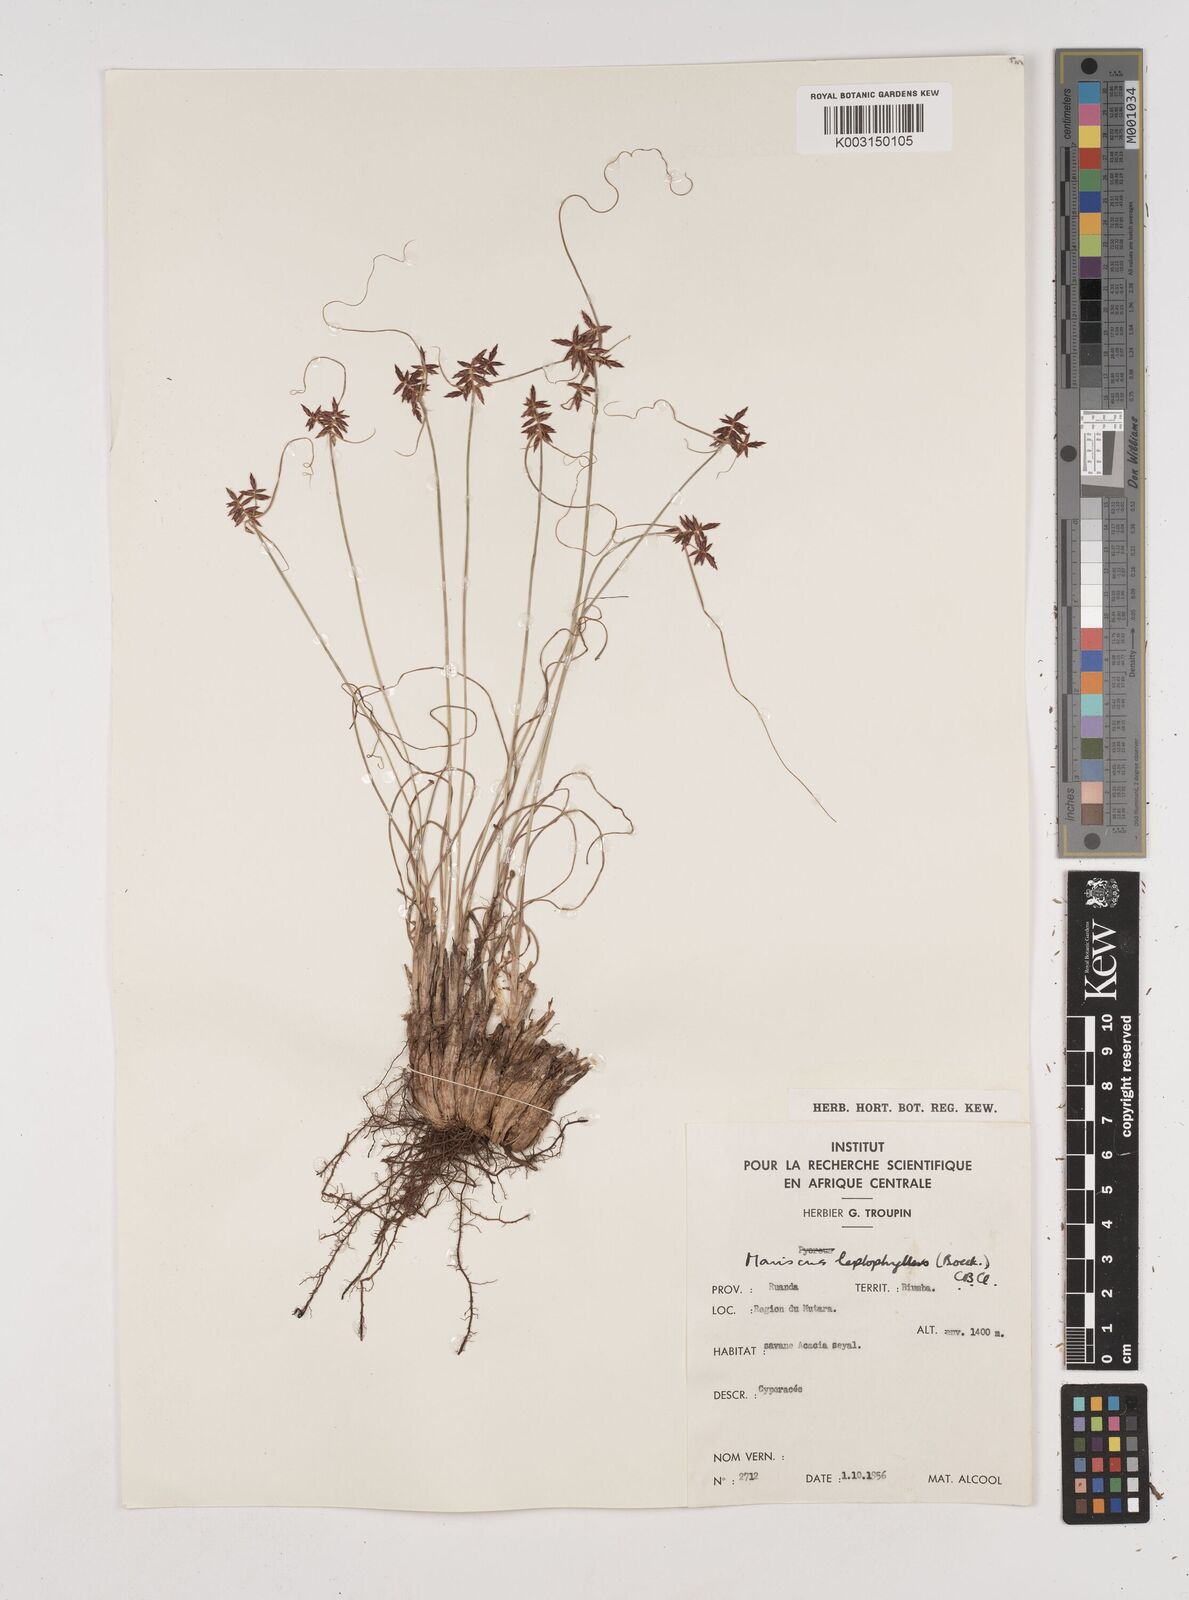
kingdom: Plantae
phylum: Tracheophyta
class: Liliopsida
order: Poales
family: Cyperaceae
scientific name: Cyperaceae
